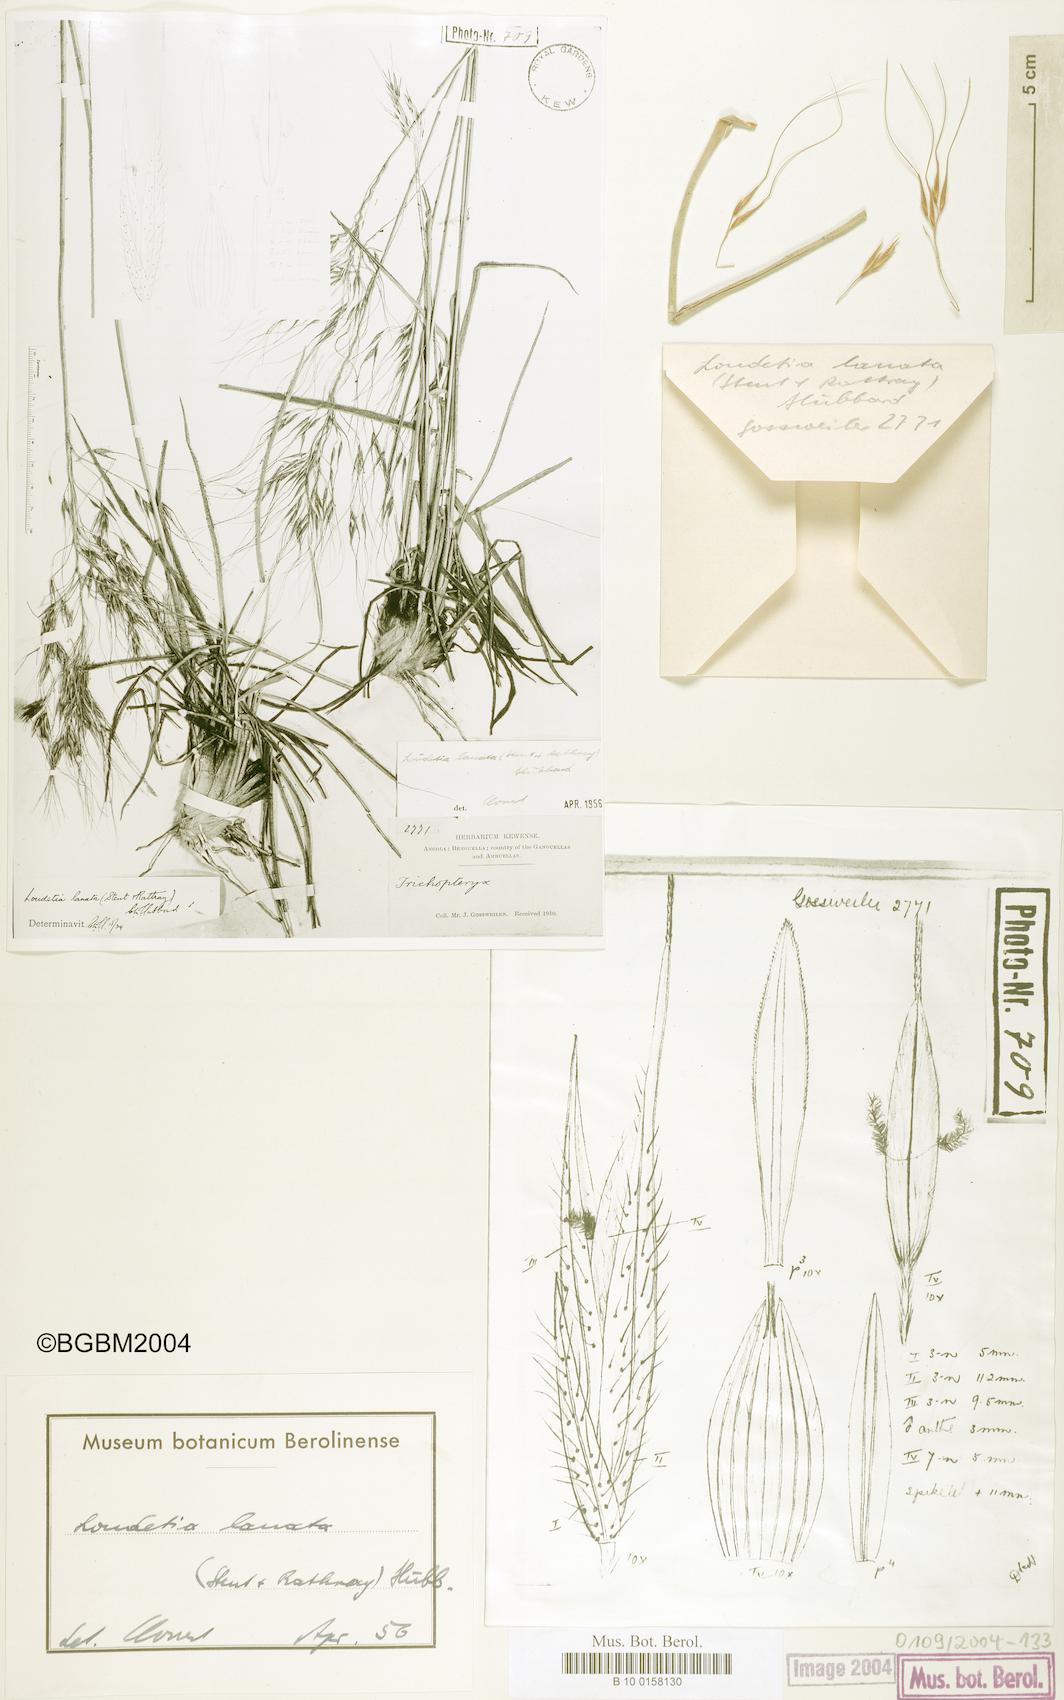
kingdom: Plantae
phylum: Tracheophyta
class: Liliopsida
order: Poales
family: Poaceae
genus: Loudetia
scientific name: Loudetia lanata
